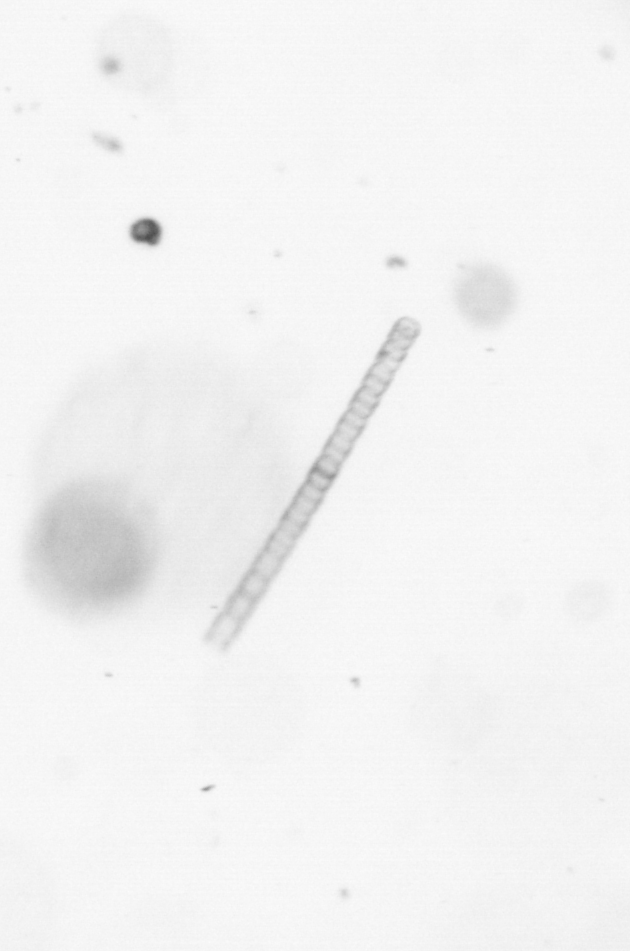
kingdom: Chromista
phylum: Ochrophyta
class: Bacillariophyceae
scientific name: Bacillariophyceae
